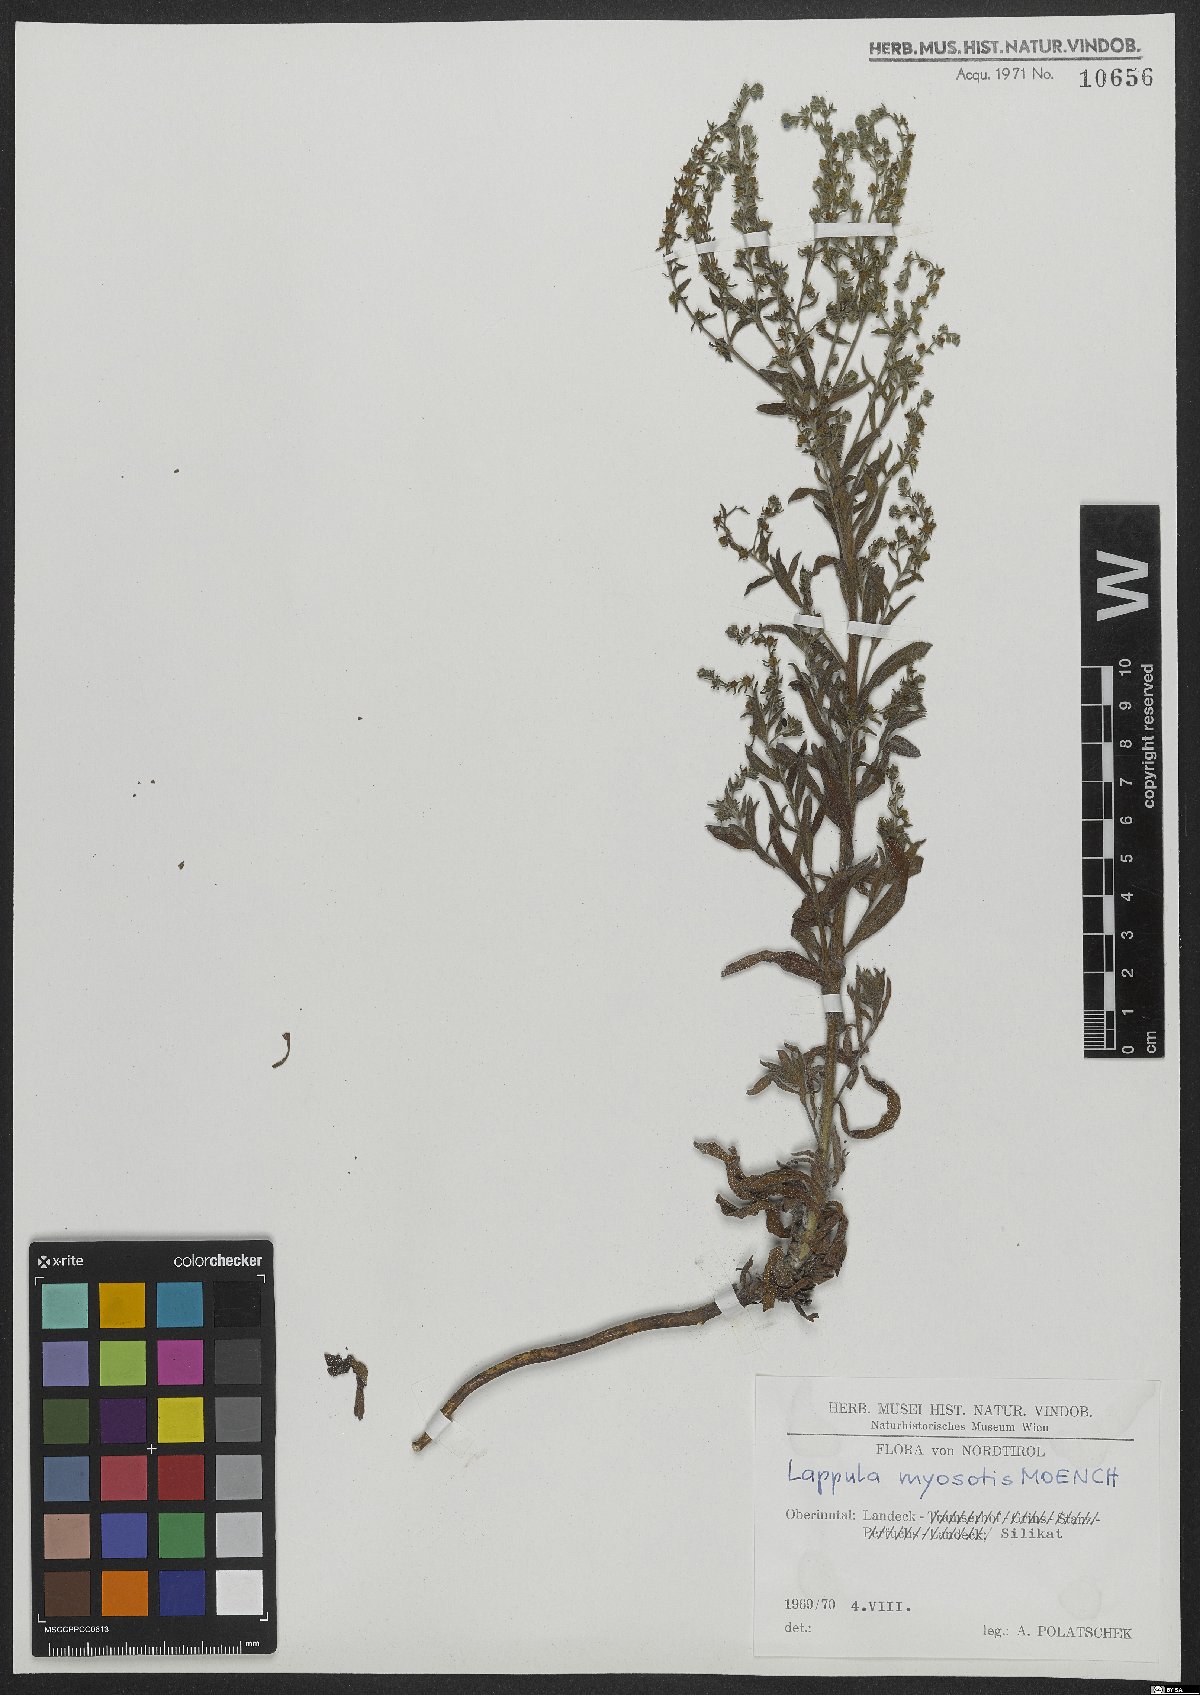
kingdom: Plantae
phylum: Tracheophyta
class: Magnoliopsida
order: Boraginales
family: Boraginaceae
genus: Lappula
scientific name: Lappula squarrosa
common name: European stickseed
